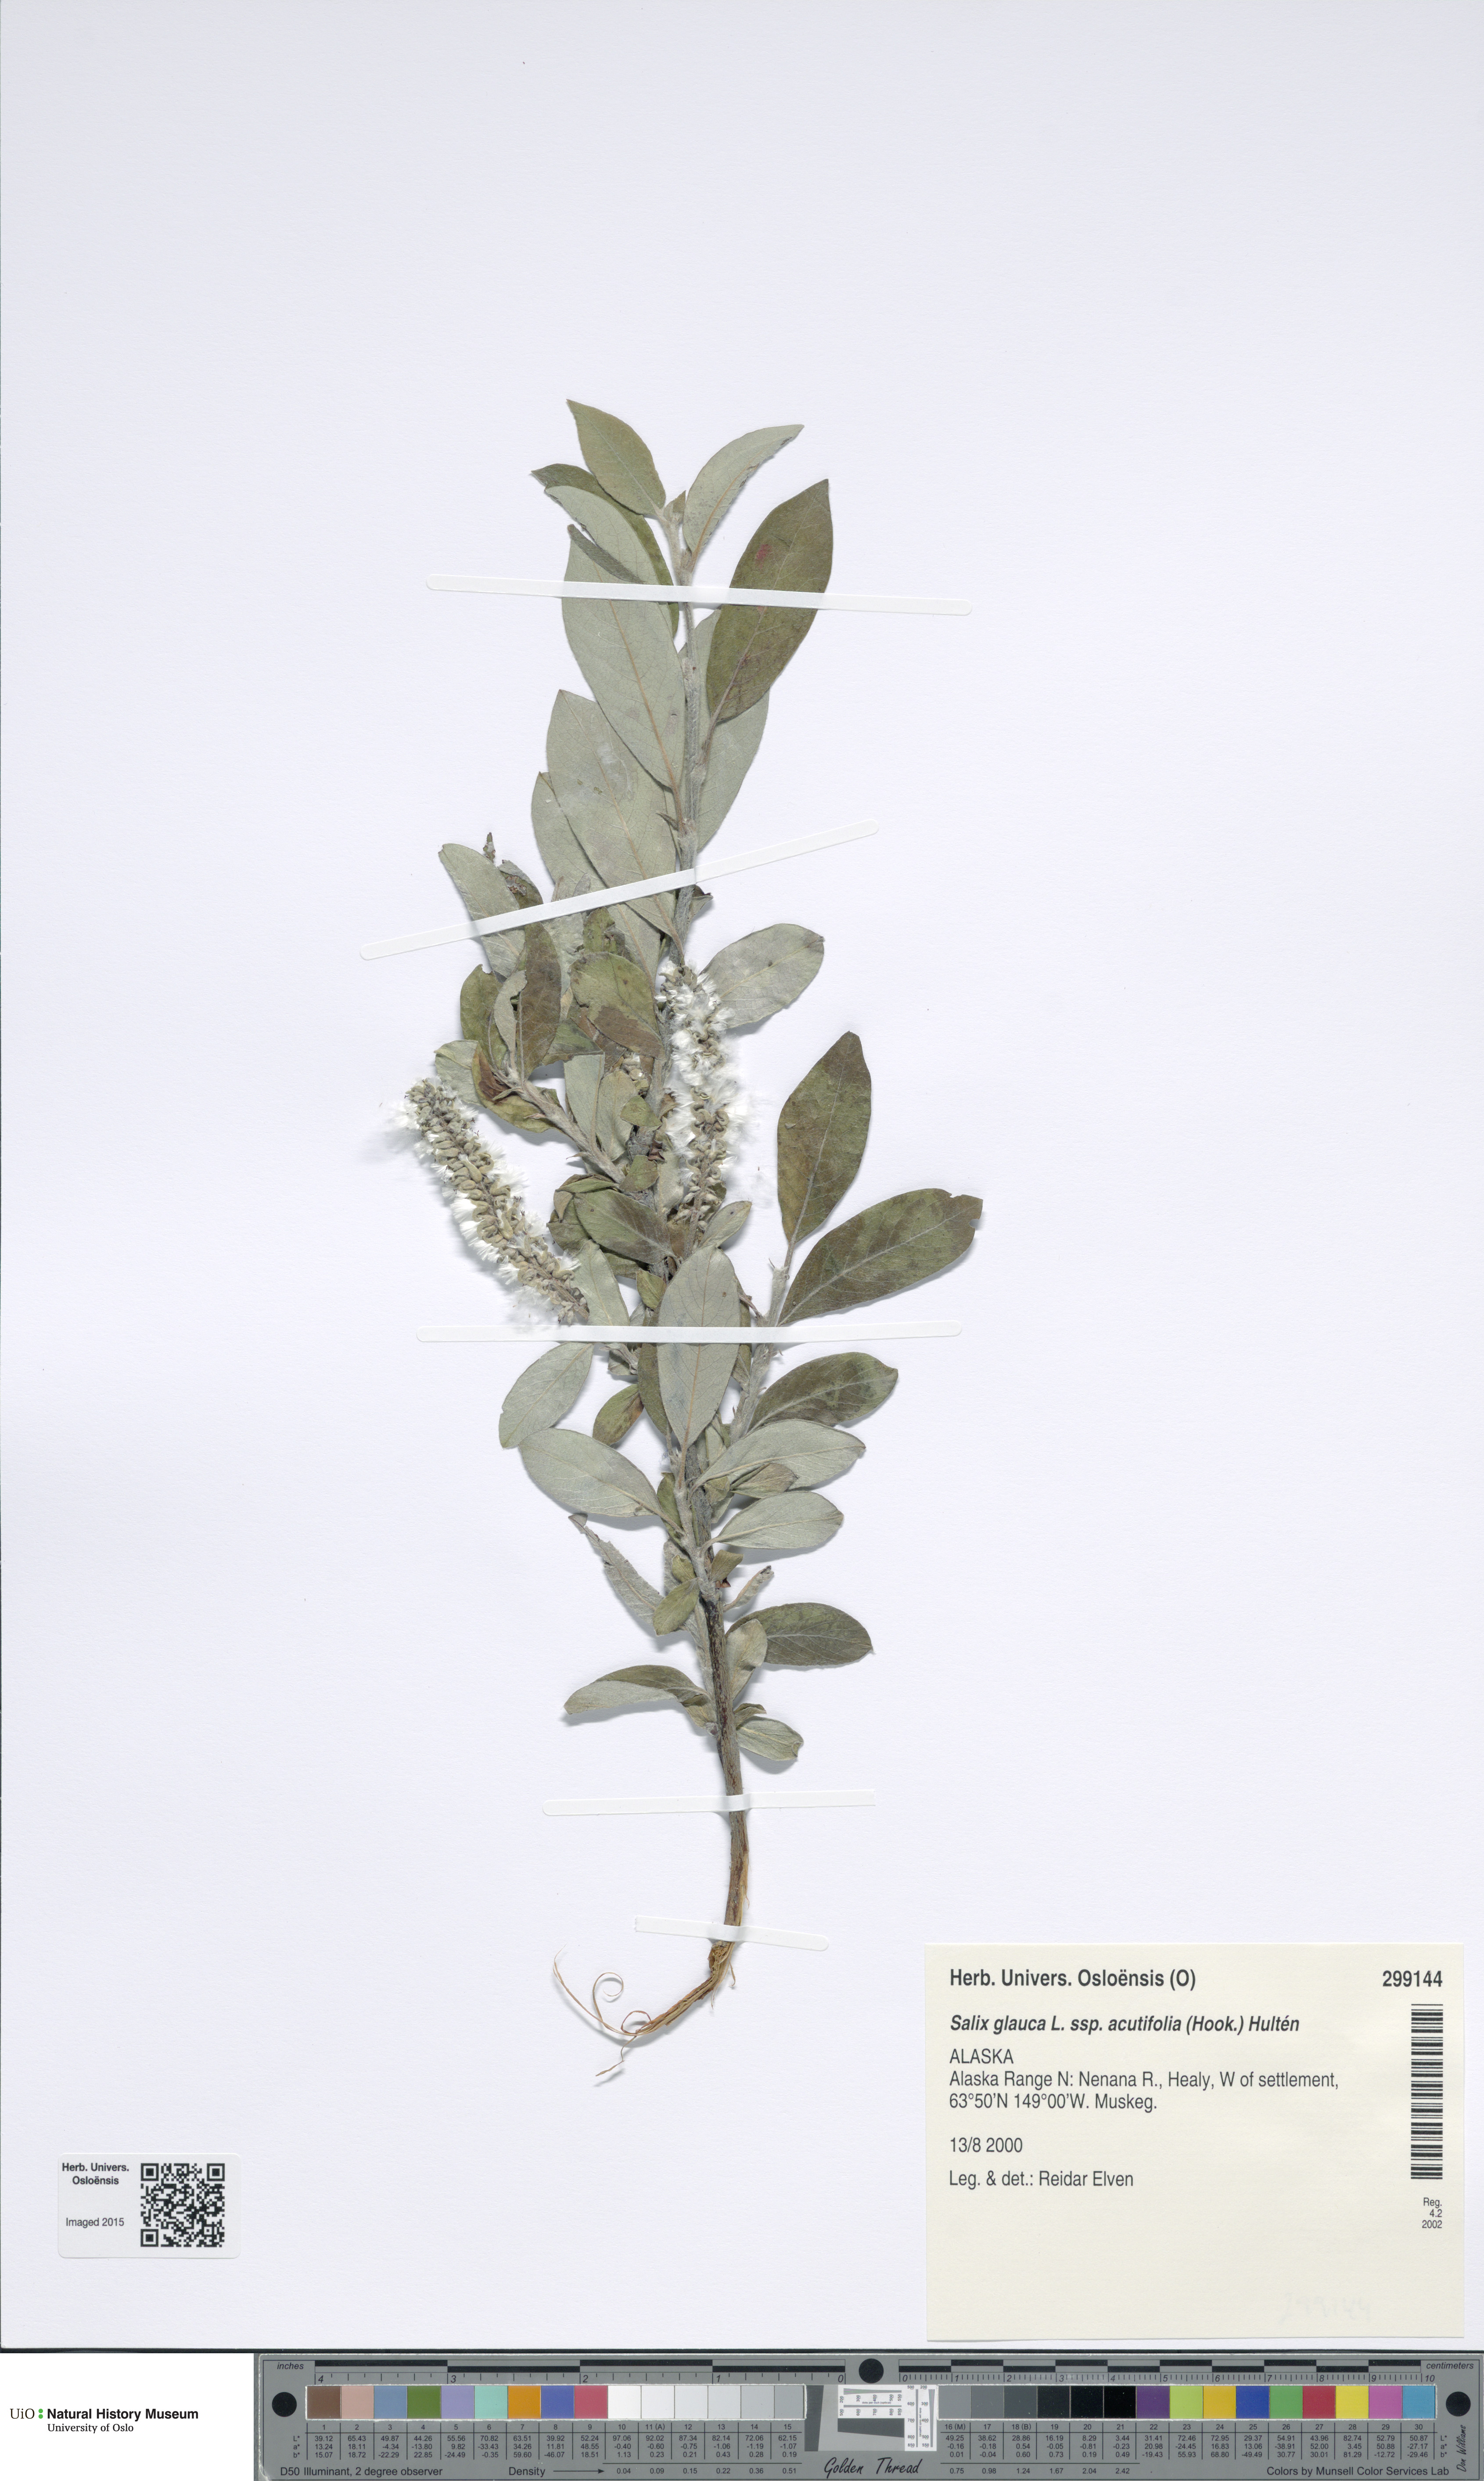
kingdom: Plantae
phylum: Tracheophyta
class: Magnoliopsida
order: Malpighiales
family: Salicaceae
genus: Salix
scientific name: Salix glauca
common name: Glaucous willow
